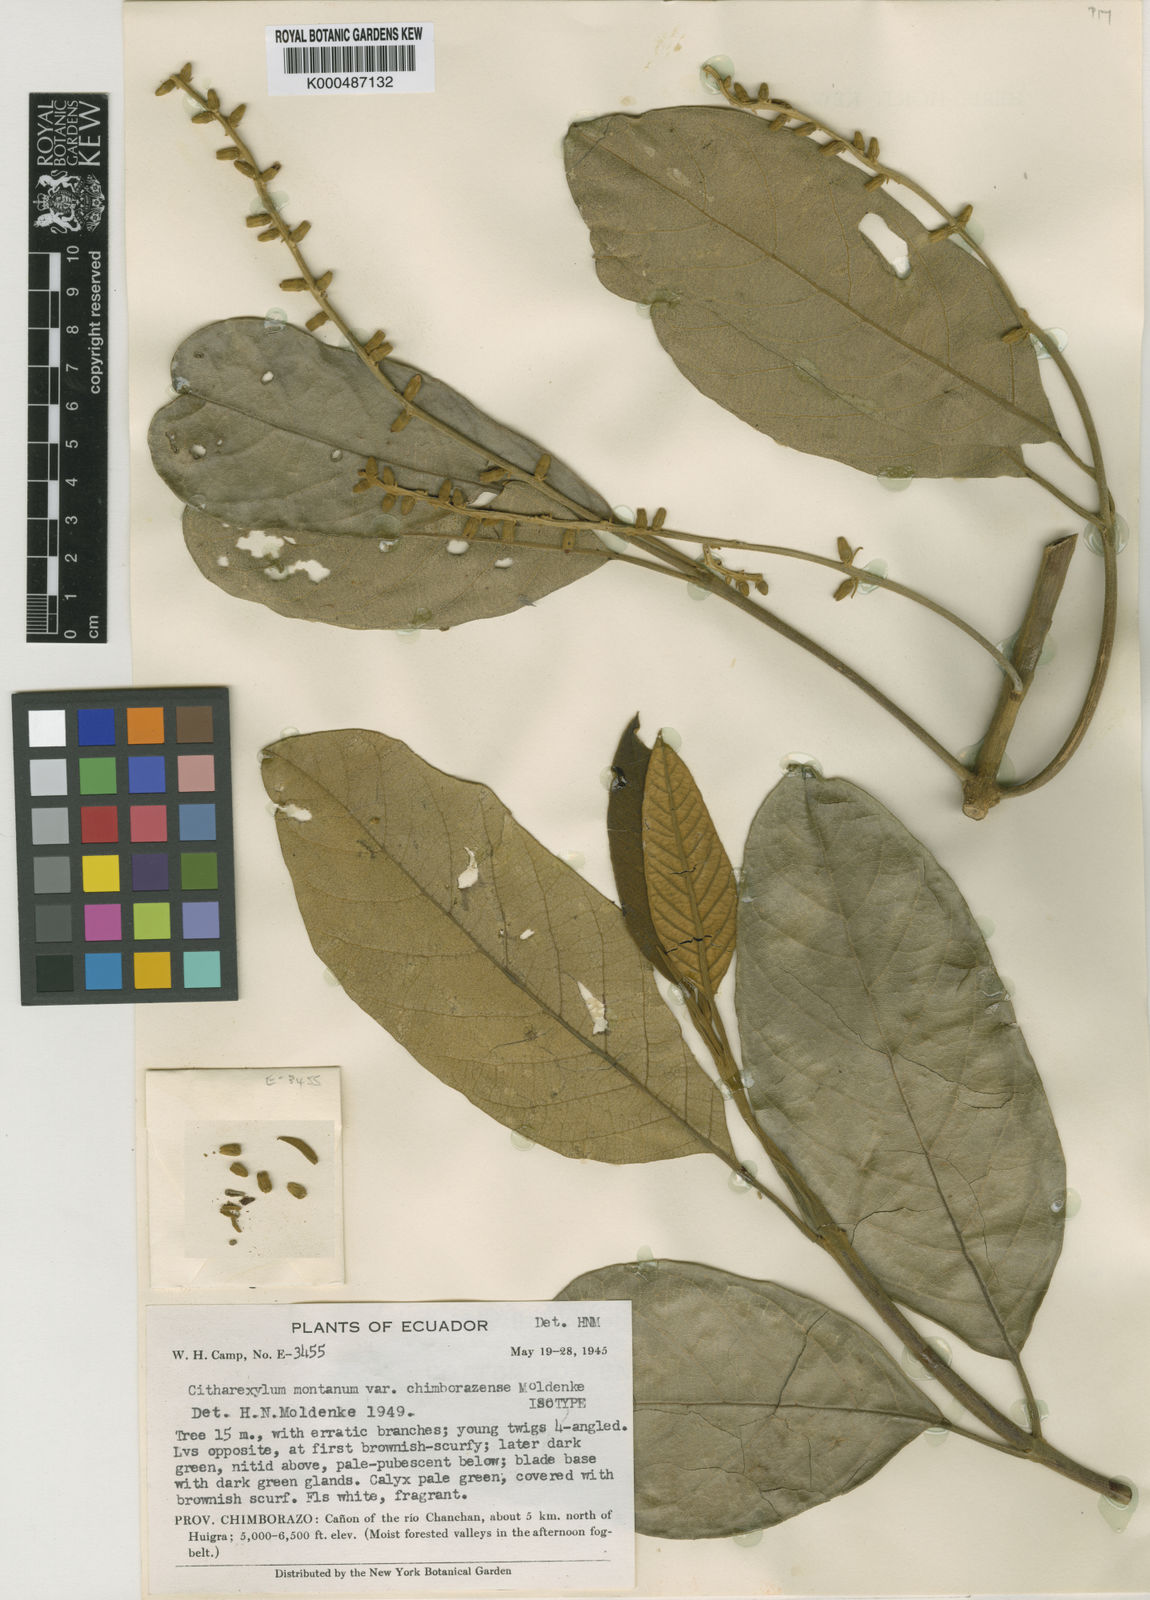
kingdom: Plantae
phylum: Tracheophyta
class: Magnoliopsida
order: Lamiales
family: Verbenaceae
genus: Citharexylum
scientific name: Citharexylum subflavescens
